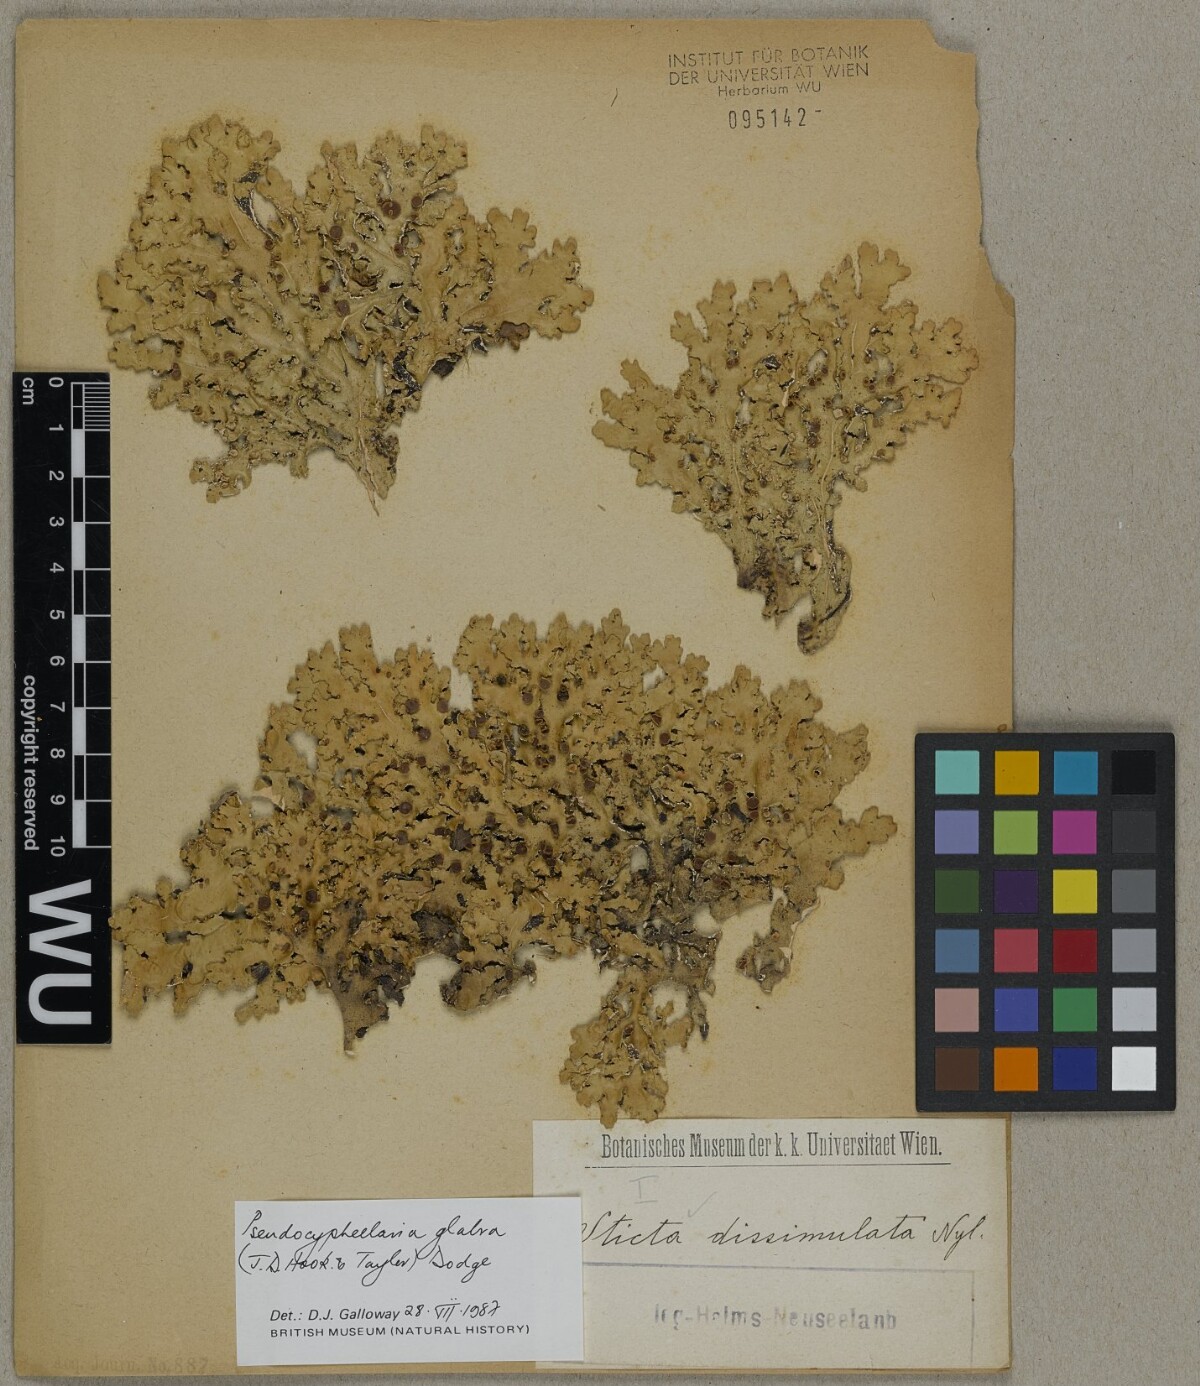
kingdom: Fungi
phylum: Ascomycota
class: Lecanoromycetes
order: Peltigerales
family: Lobariaceae
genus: Pseudocyphellaria
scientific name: Pseudocyphellaria glabra
